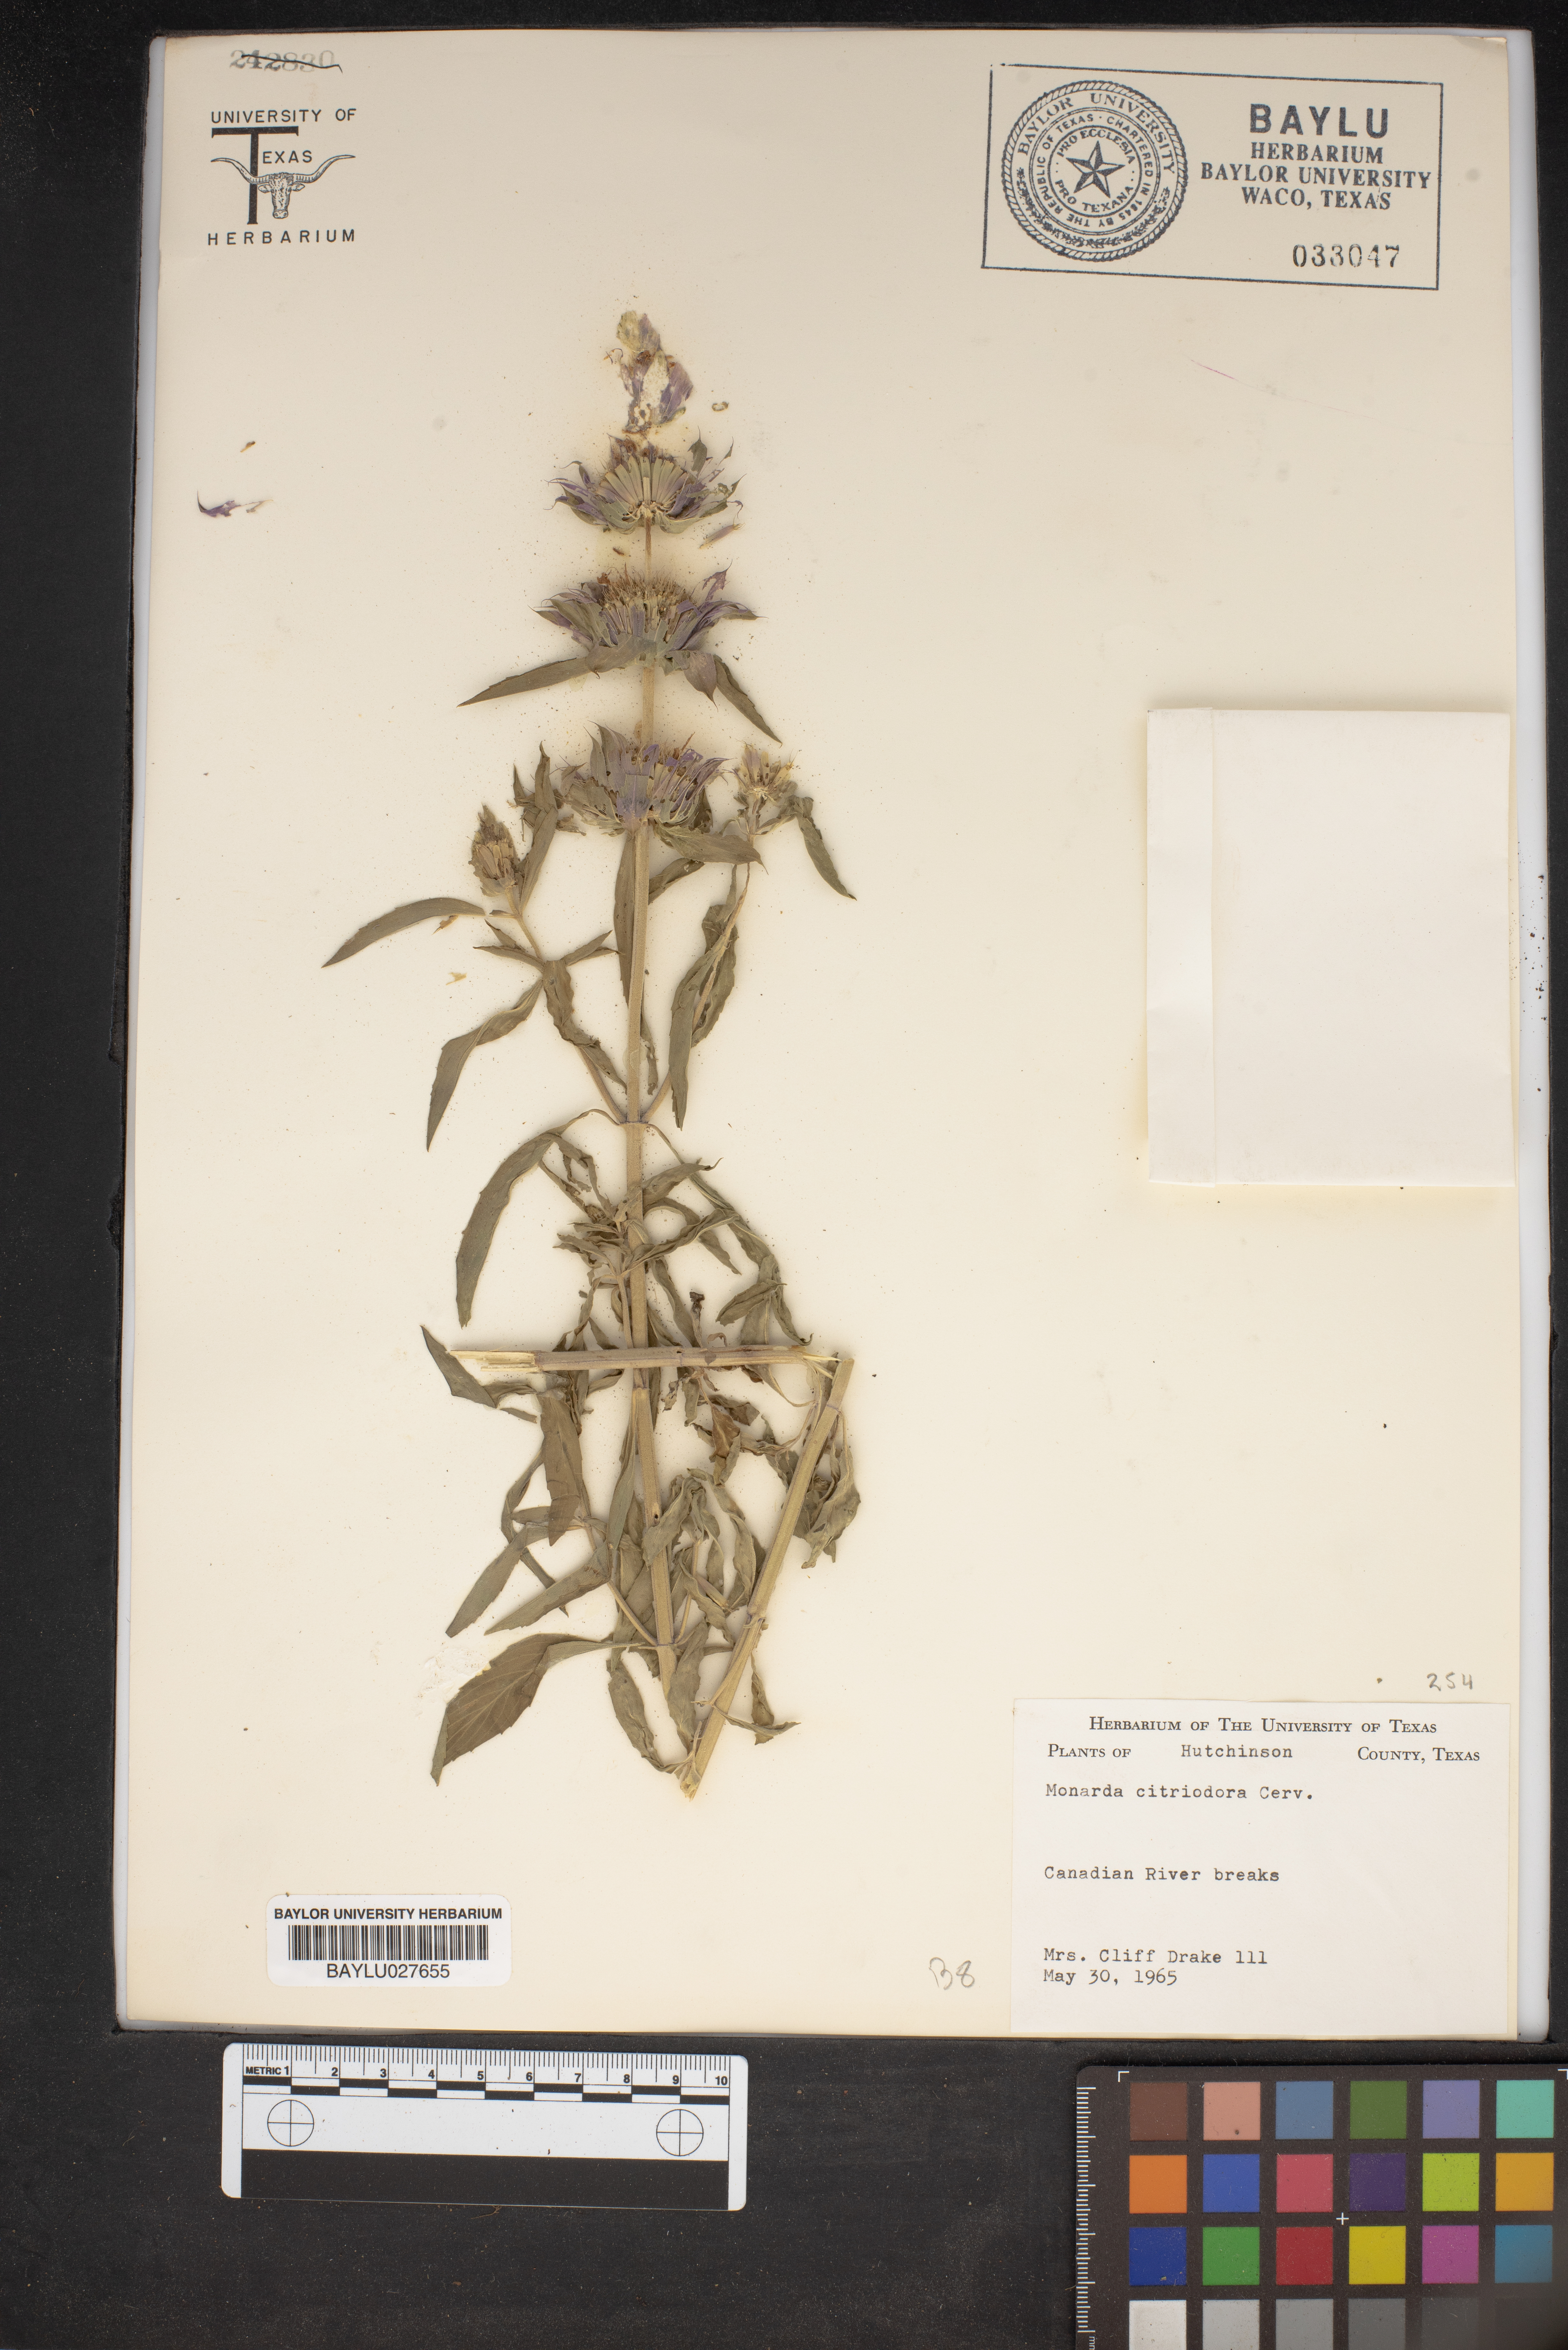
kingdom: Plantae
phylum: Tracheophyta
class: Magnoliopsida
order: Lamiales
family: Lamiaceae
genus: Monarda
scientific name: Monarda citriodora
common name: Lemon beebalm
